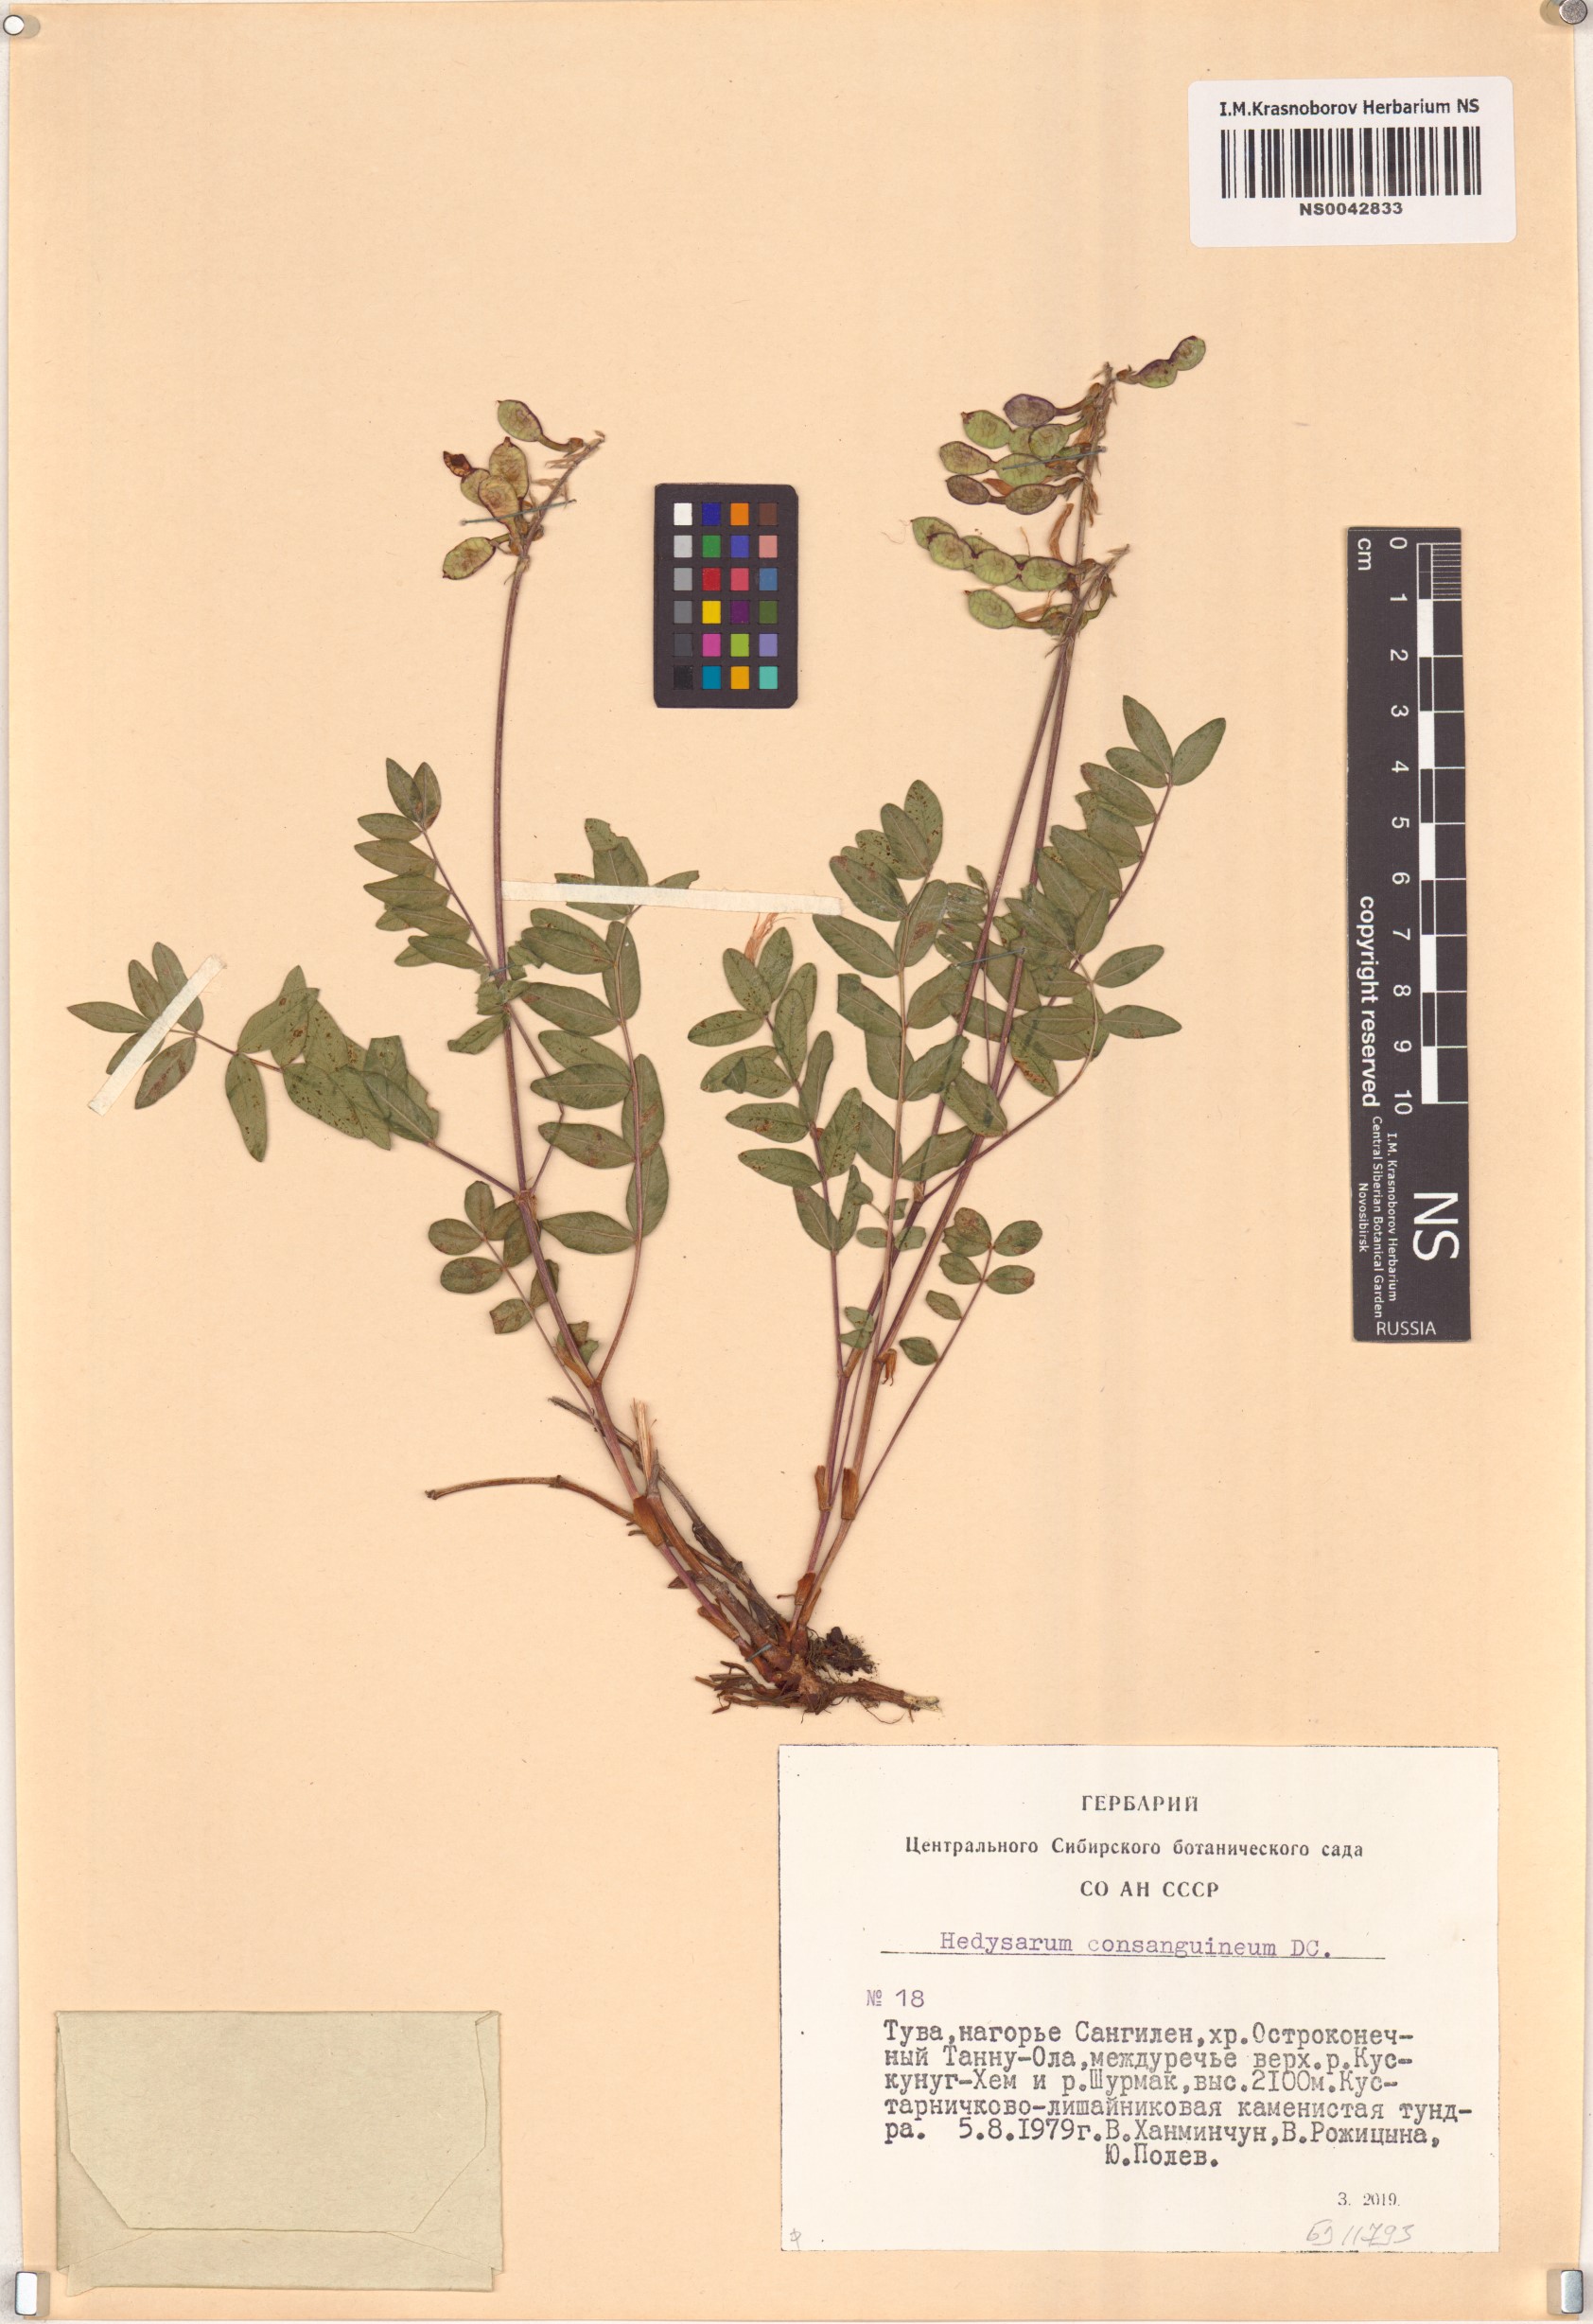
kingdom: Plantae
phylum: Tracheophyta
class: Magnoliopsida
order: Fabales
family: Fabaceae
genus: Hedysarum
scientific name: Hedysarum consanguineum
